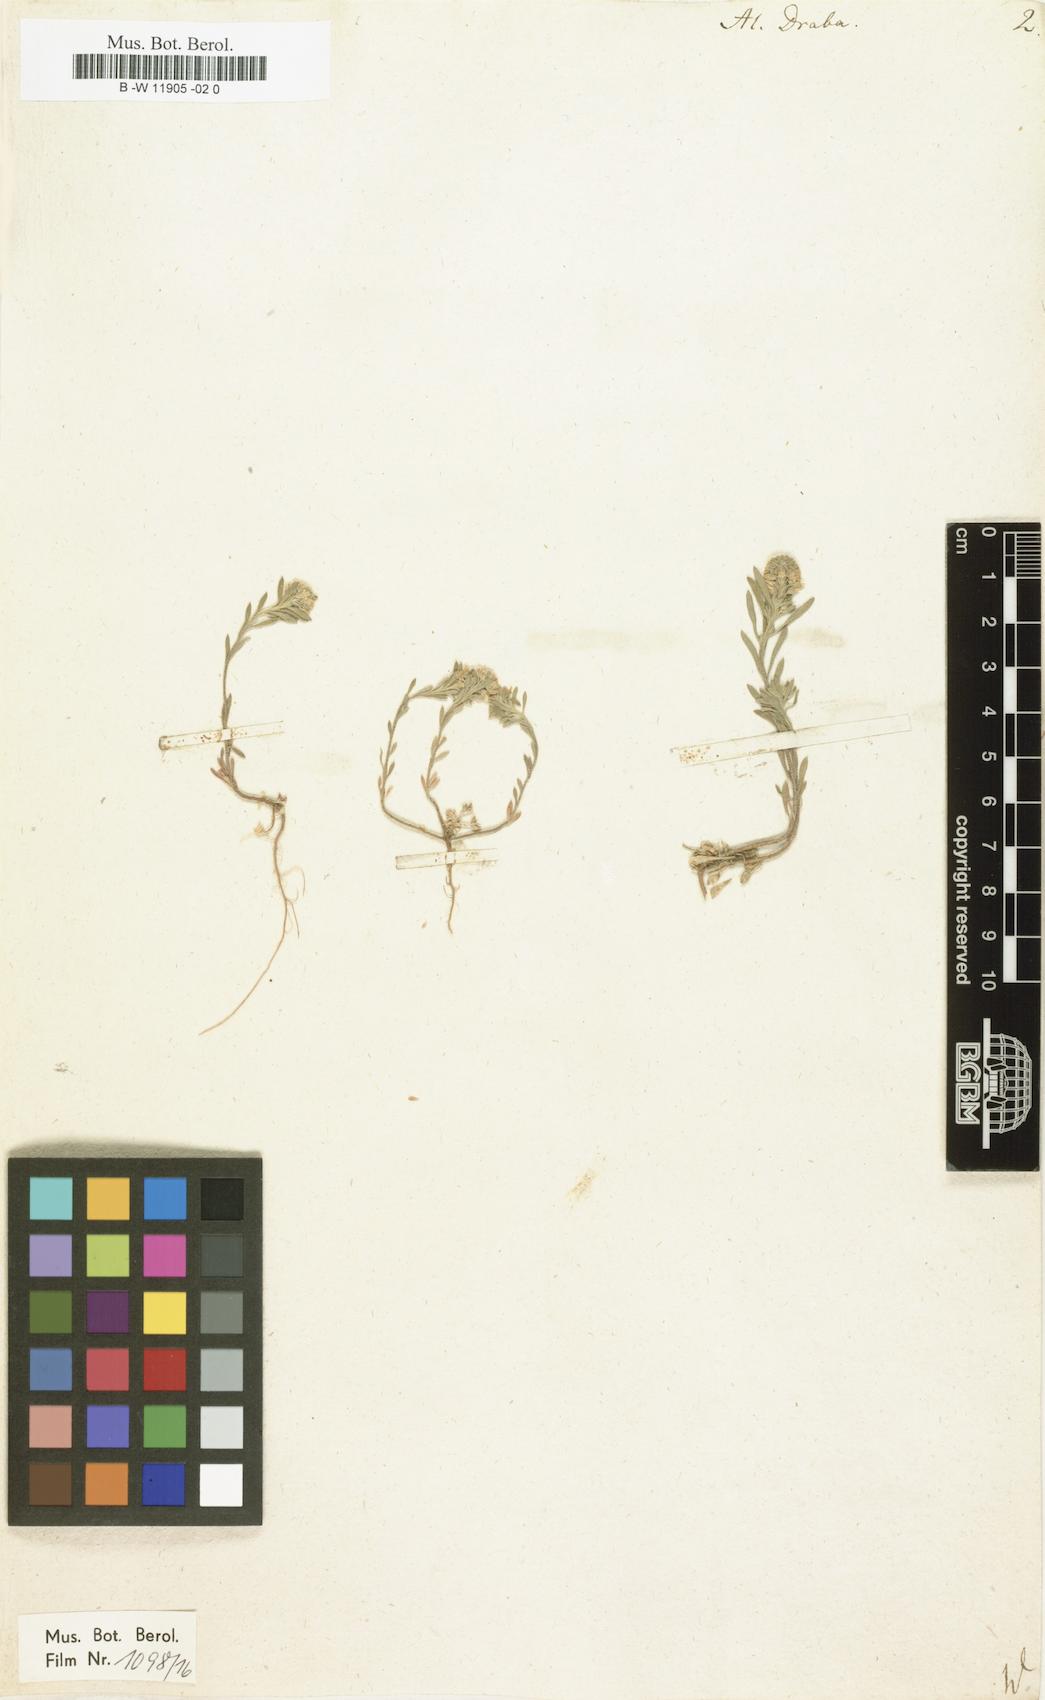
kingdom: Plantae
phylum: Tracheophyta
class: Magnoliopsida
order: Brassicales
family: Brassicaceae
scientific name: Brassicaceae
